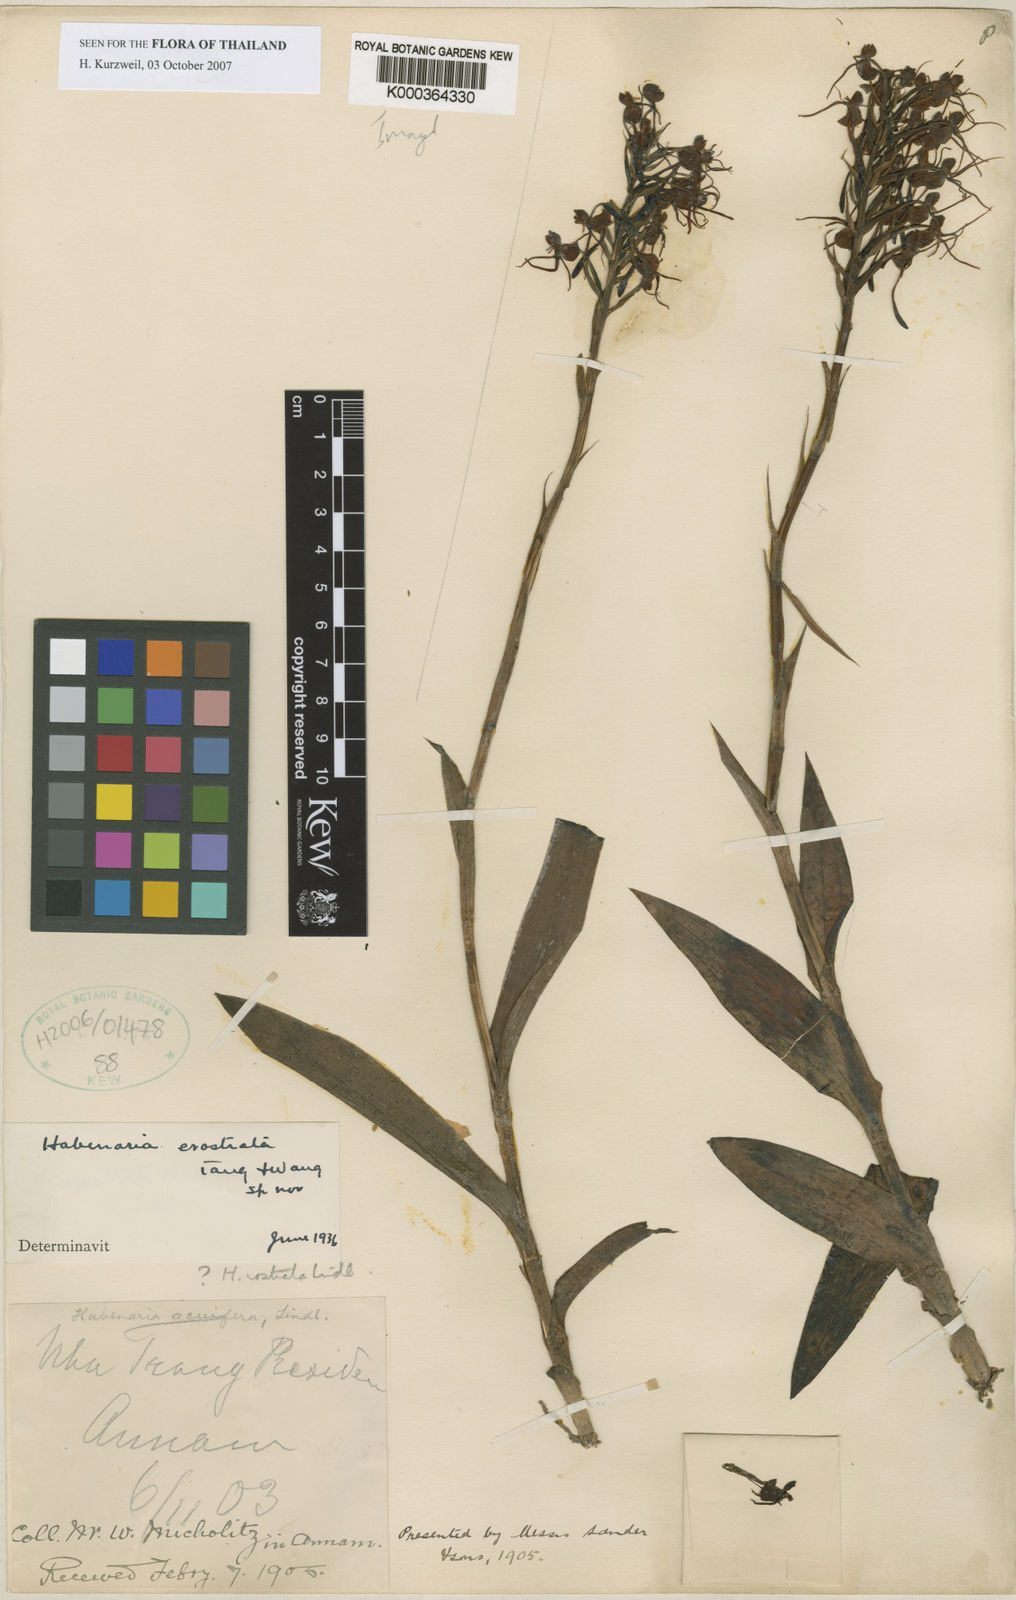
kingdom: Plantae
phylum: Tracheophyta
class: Liliopsida
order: Asparagales
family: Orchidaceae
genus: Habenaria
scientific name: Habenaria erostrata
